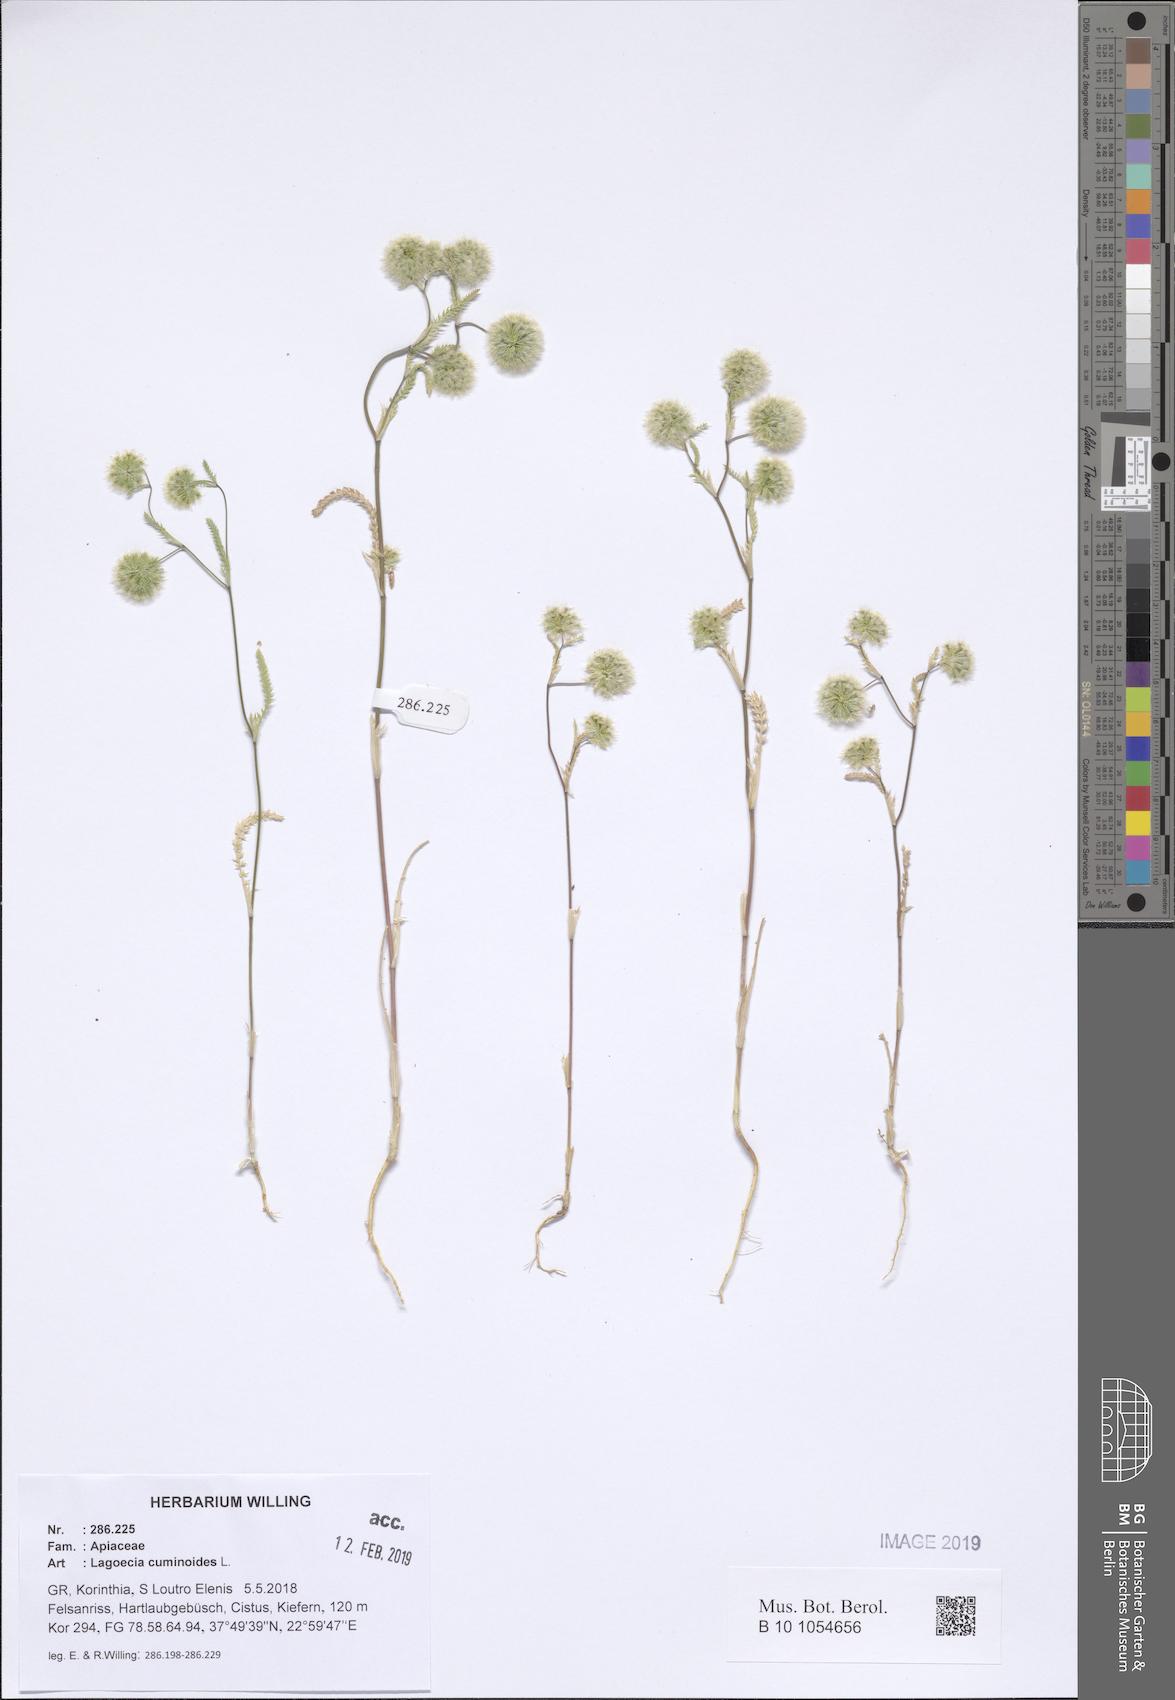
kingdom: Plantae
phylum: Tracheophyta
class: Magnoliopsida
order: Apiales
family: Apiaceae
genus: Lagoecia
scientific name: Lagoecia cuminoides
